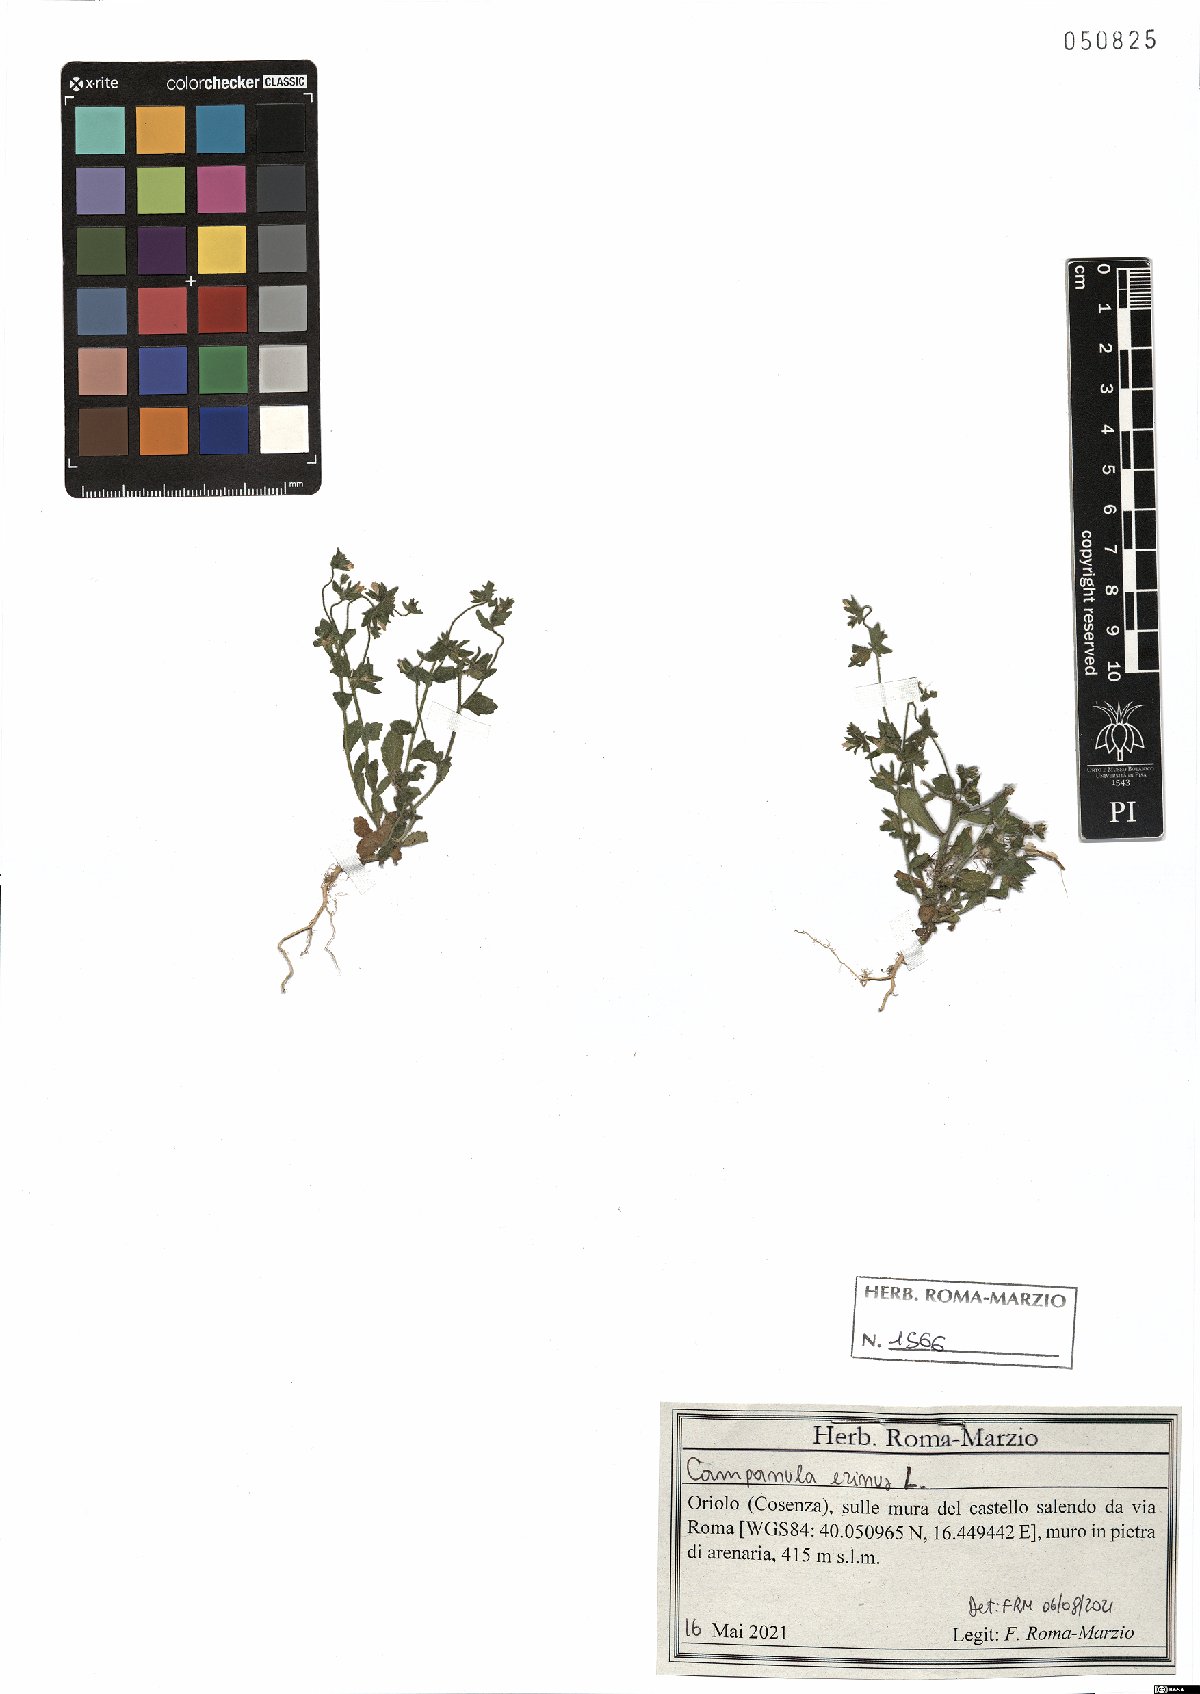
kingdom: Plantae
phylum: Tracheophyta
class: Magnoliopsida
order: Asterales
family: Campanulaceae
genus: Campanula
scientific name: Campanula erinus
